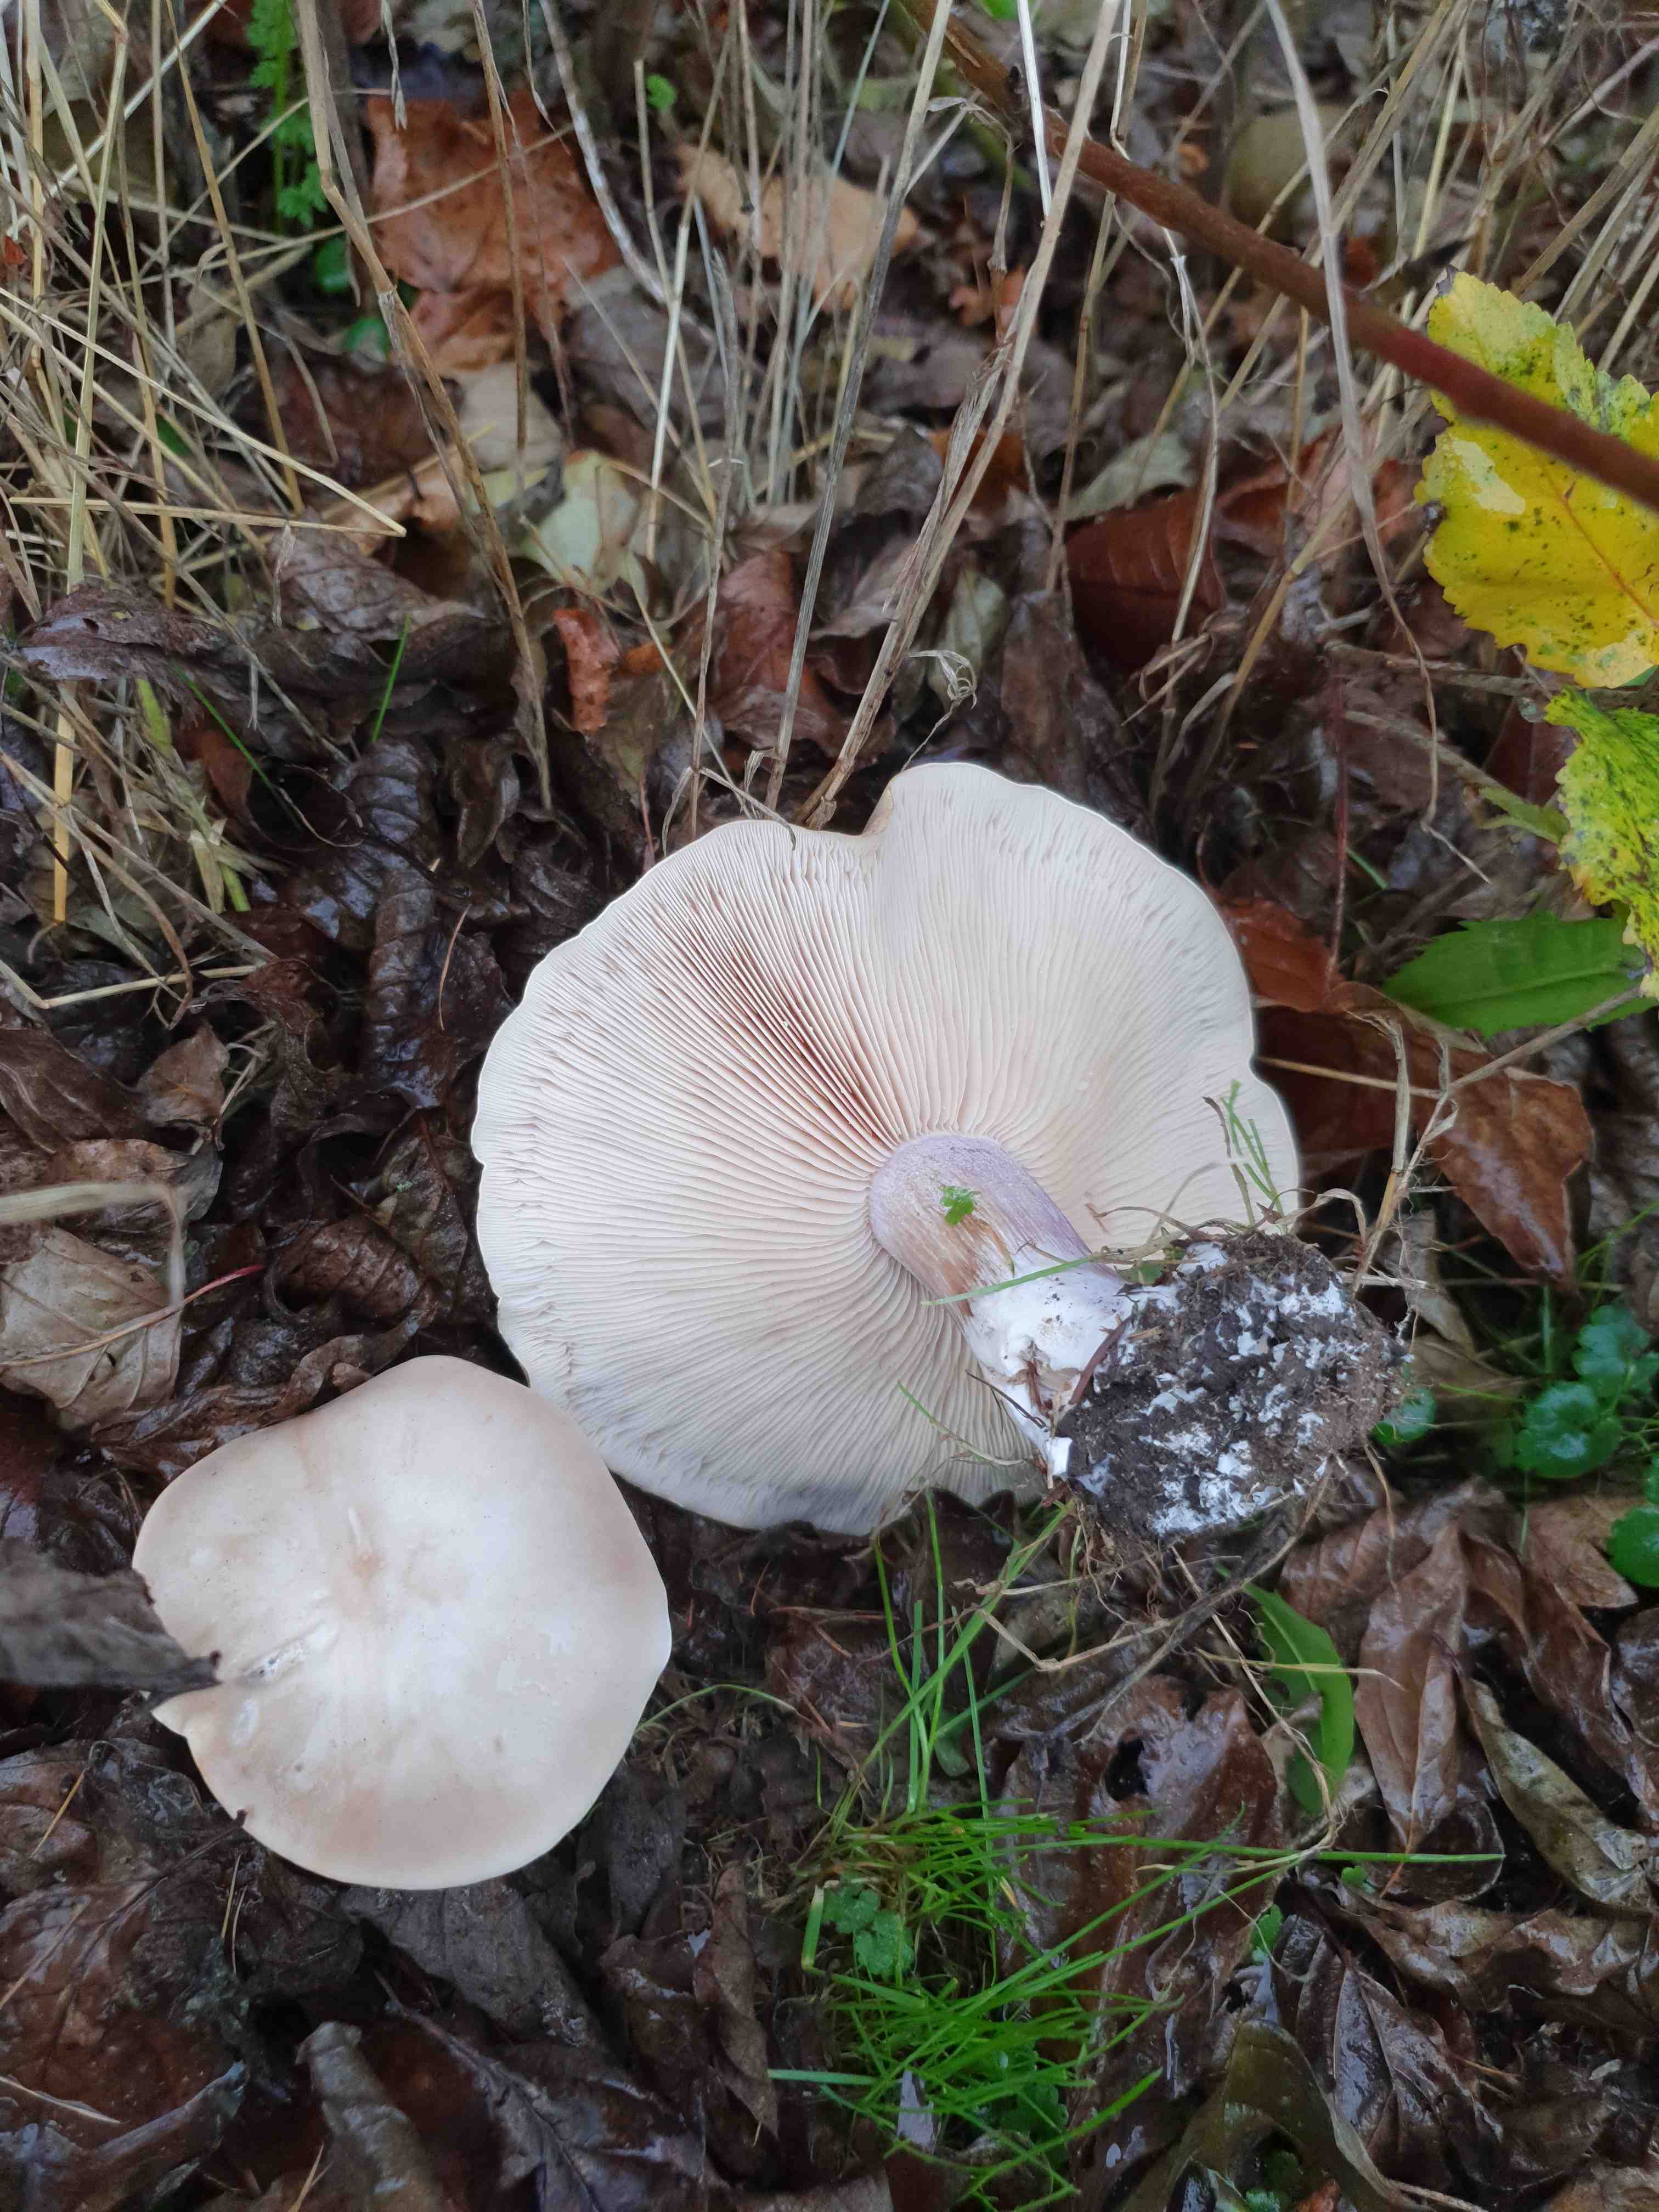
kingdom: Fungi
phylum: Basidiomycota
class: Agaricomycetes
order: Agaricales
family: Tricholomataceae
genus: Lepista
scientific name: Lepista personata
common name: bleg hekseringshat
